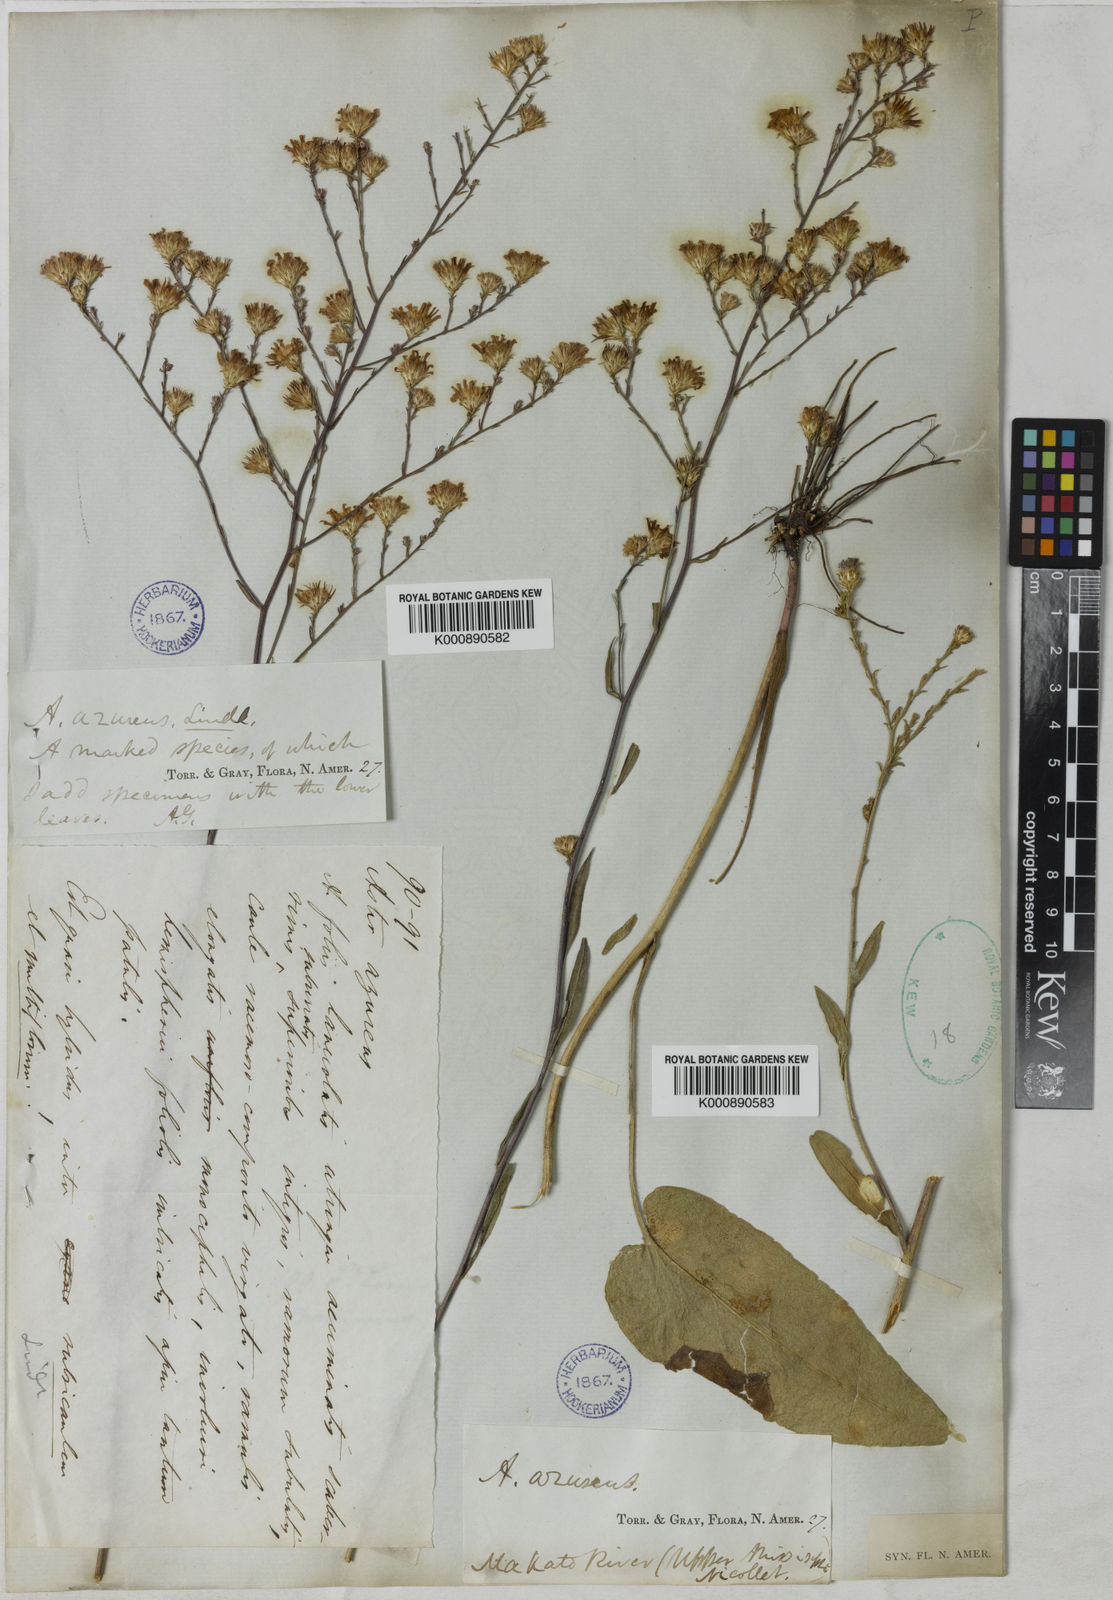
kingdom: Plantae
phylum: Tracheophyta
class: Magnoliopsida
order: Asterales
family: Asteraceae
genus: Symphyotrichum
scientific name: Symphyotrichum shortii
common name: Short's aster
